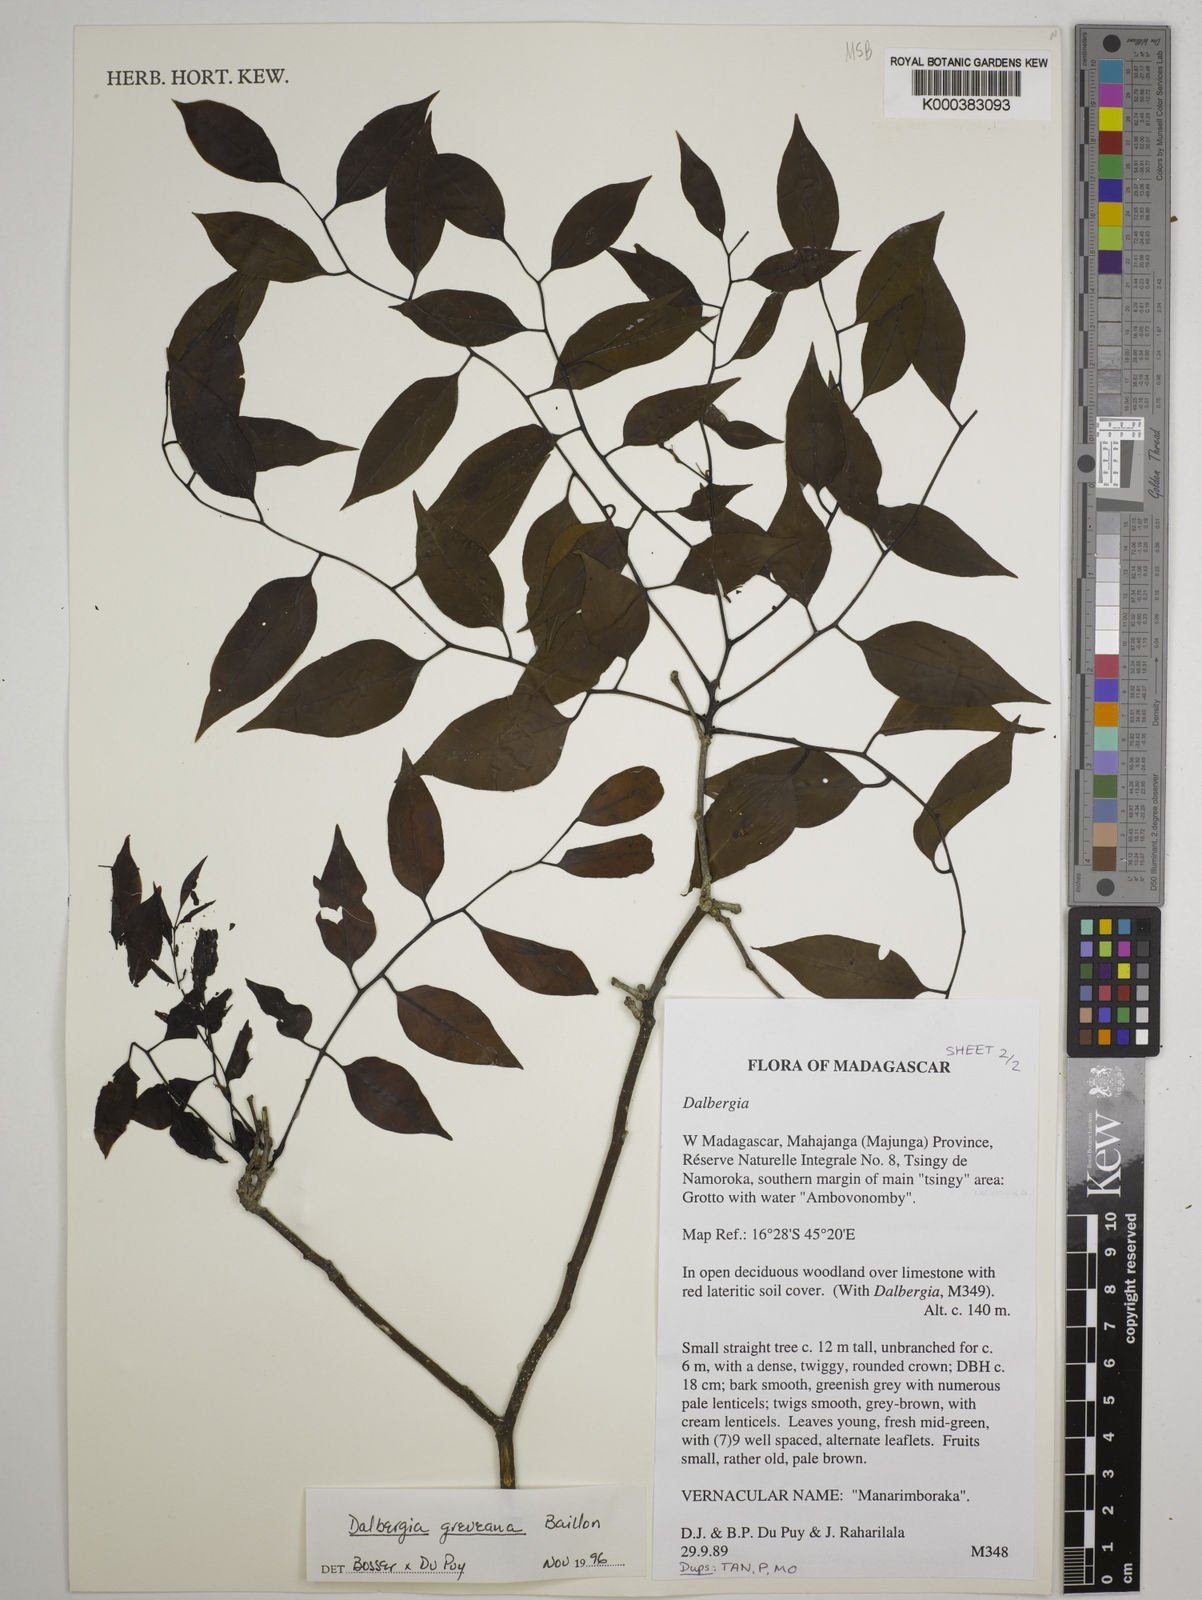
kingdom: Plantae
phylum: Tracheophyta
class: Magnoliopsida
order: Fabales
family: Fabaceae
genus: Dalbergia
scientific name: Dalbergia greveana
